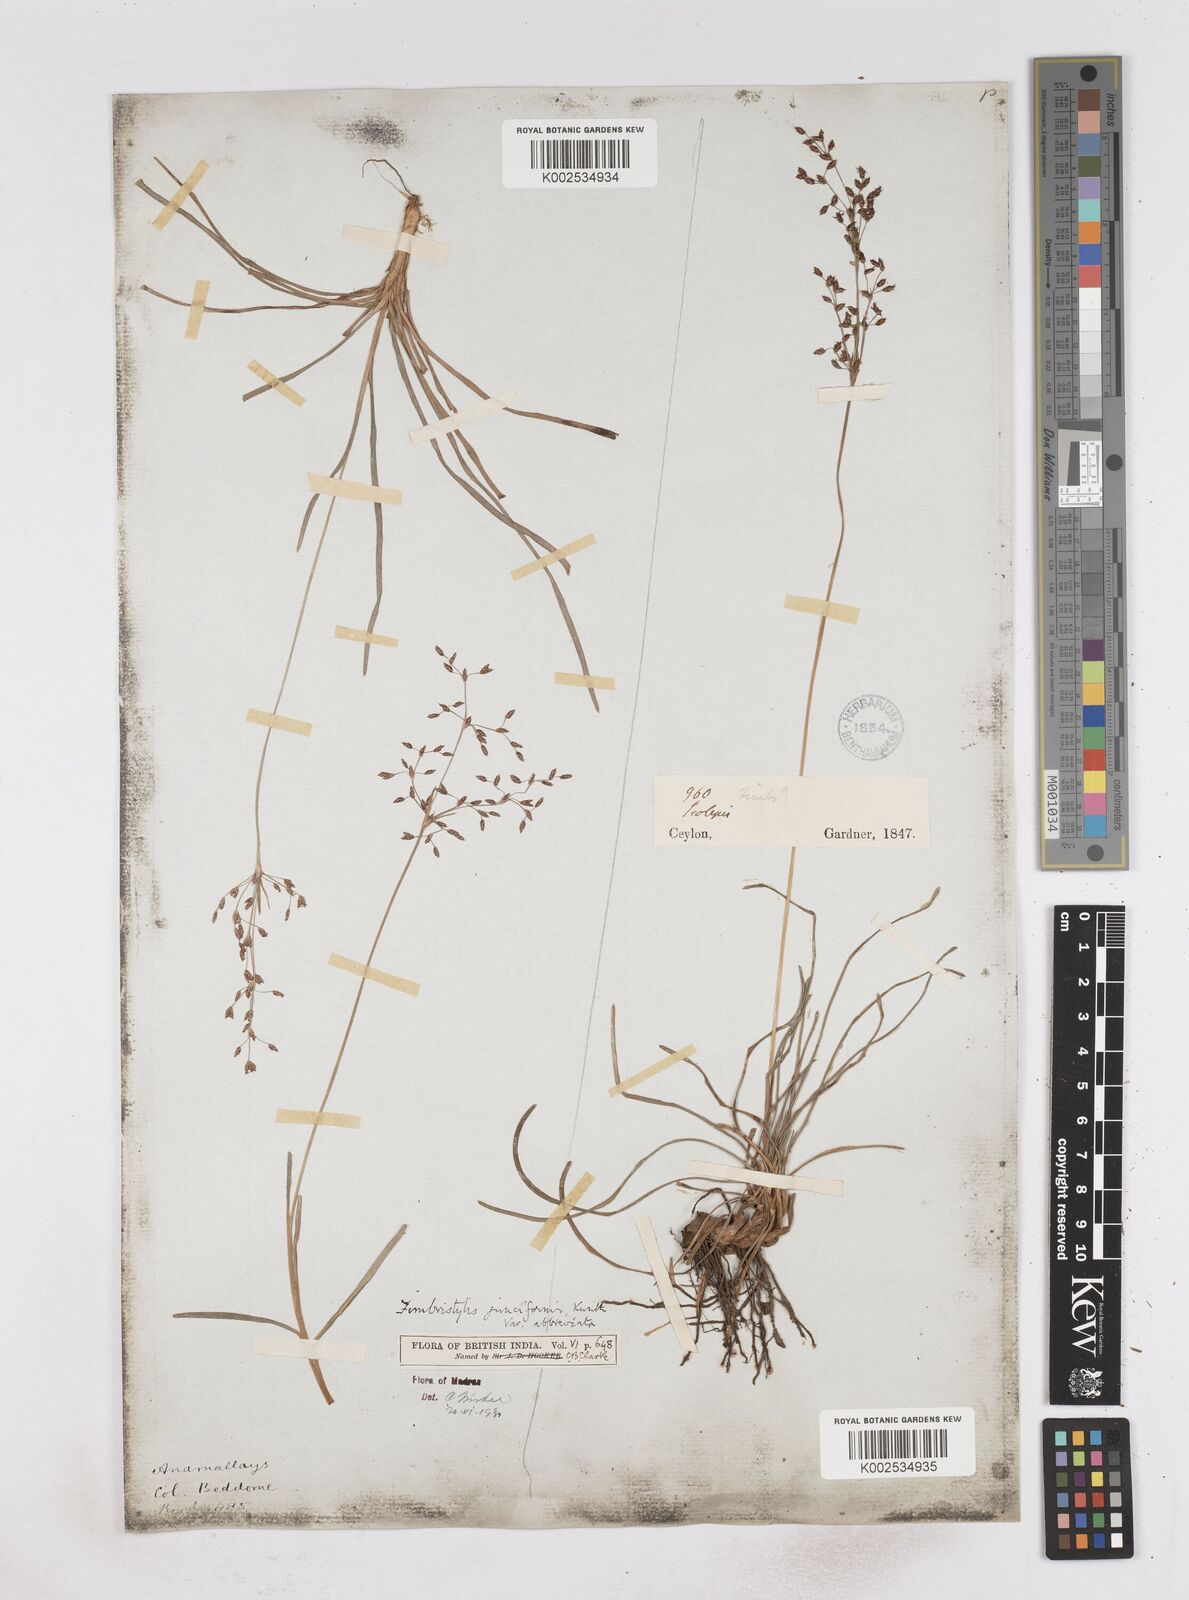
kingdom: Plantae
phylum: Tracheophyta
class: Liliopsida
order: Poales
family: Cyperaceae
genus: Fimbristylis
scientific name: Fimbristylis falcata
